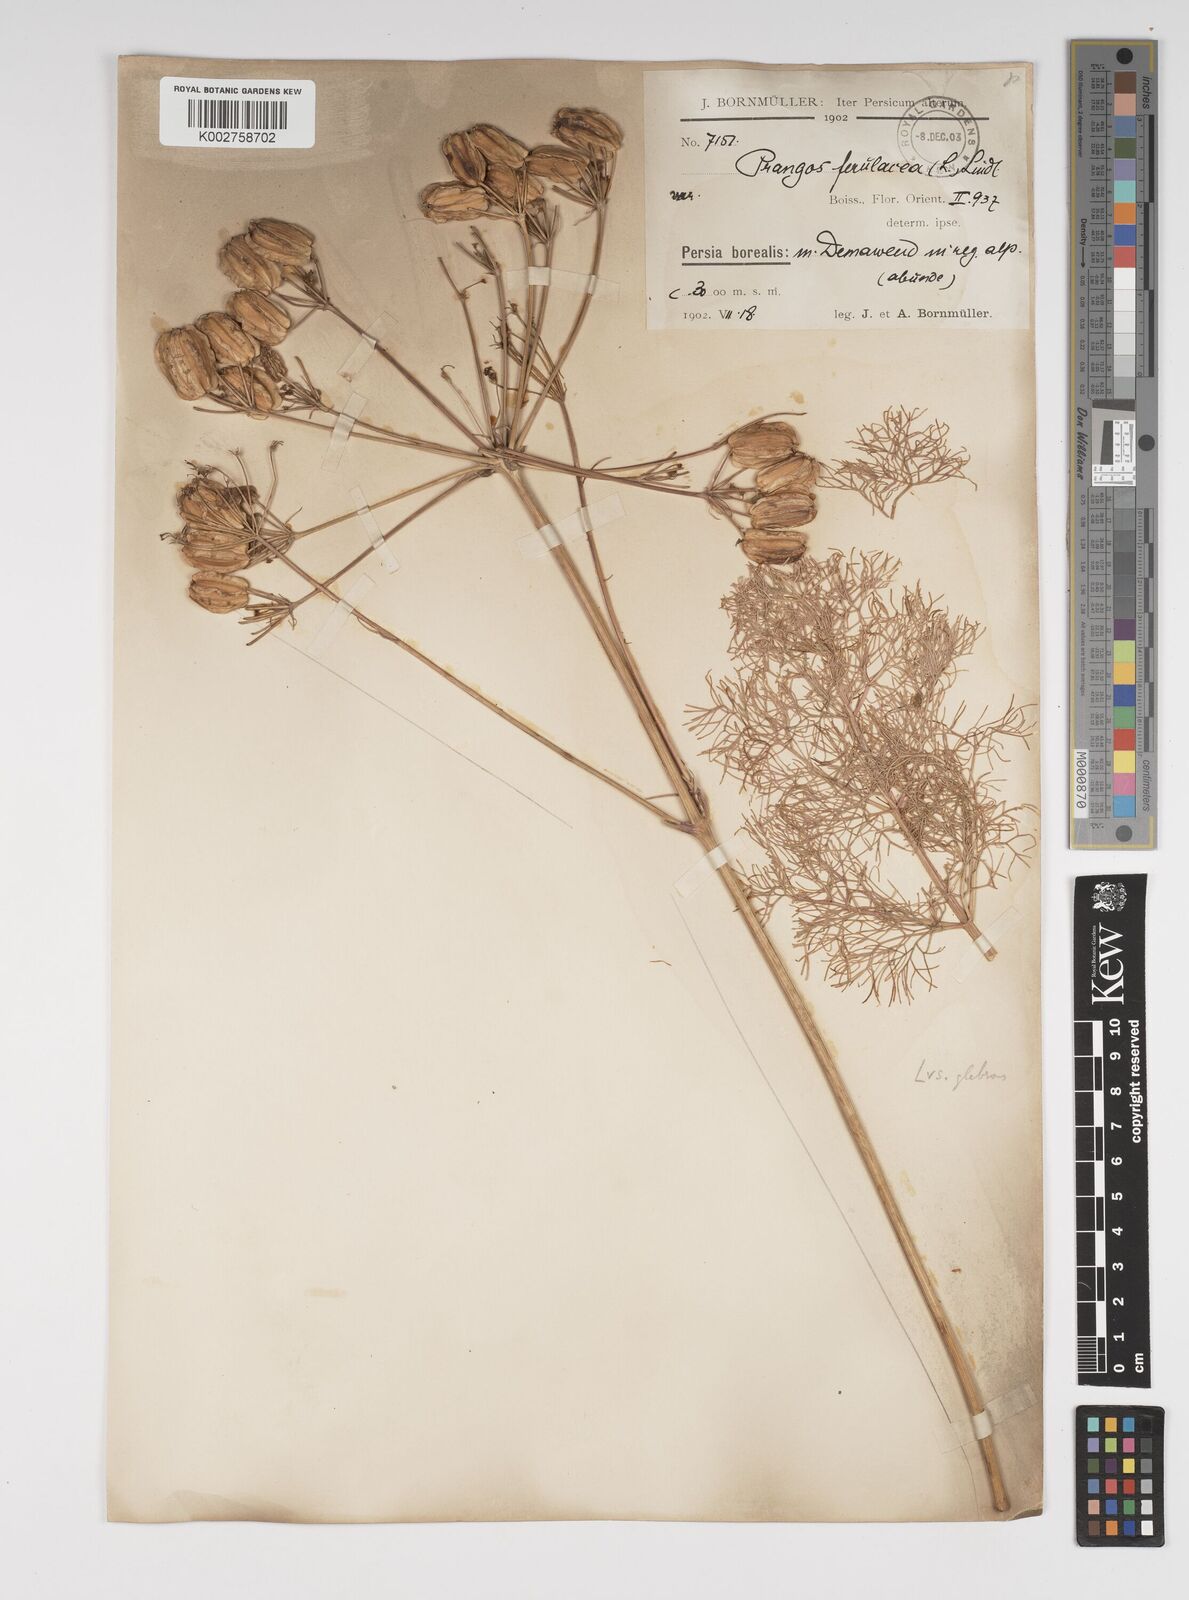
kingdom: Plantae
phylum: Tracheophyta
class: Magnoliopsida
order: Apiales
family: Apiaceae
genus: Prangos
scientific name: Prangos ferulacea
